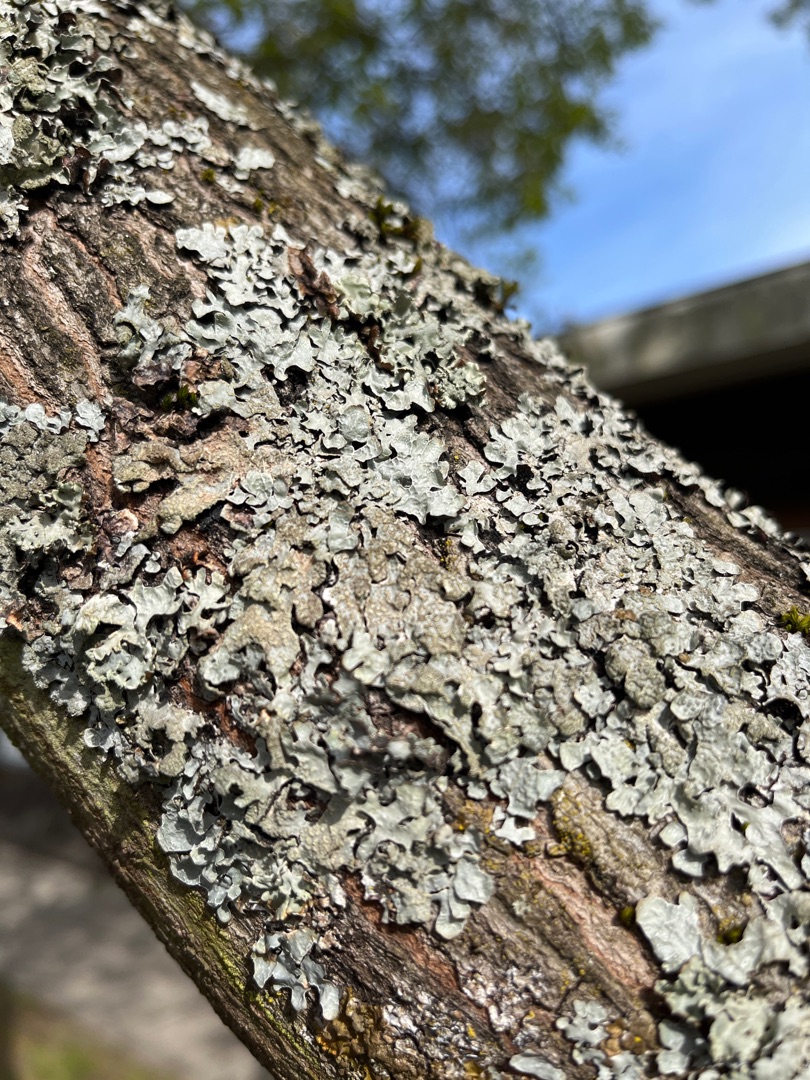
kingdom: Fungi
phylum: Ascomycota
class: Lecanoromycetes
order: Lecanorales
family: Parmeliaceae
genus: Parmelia
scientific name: Parmelia sulcata
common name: Rynket skållav
